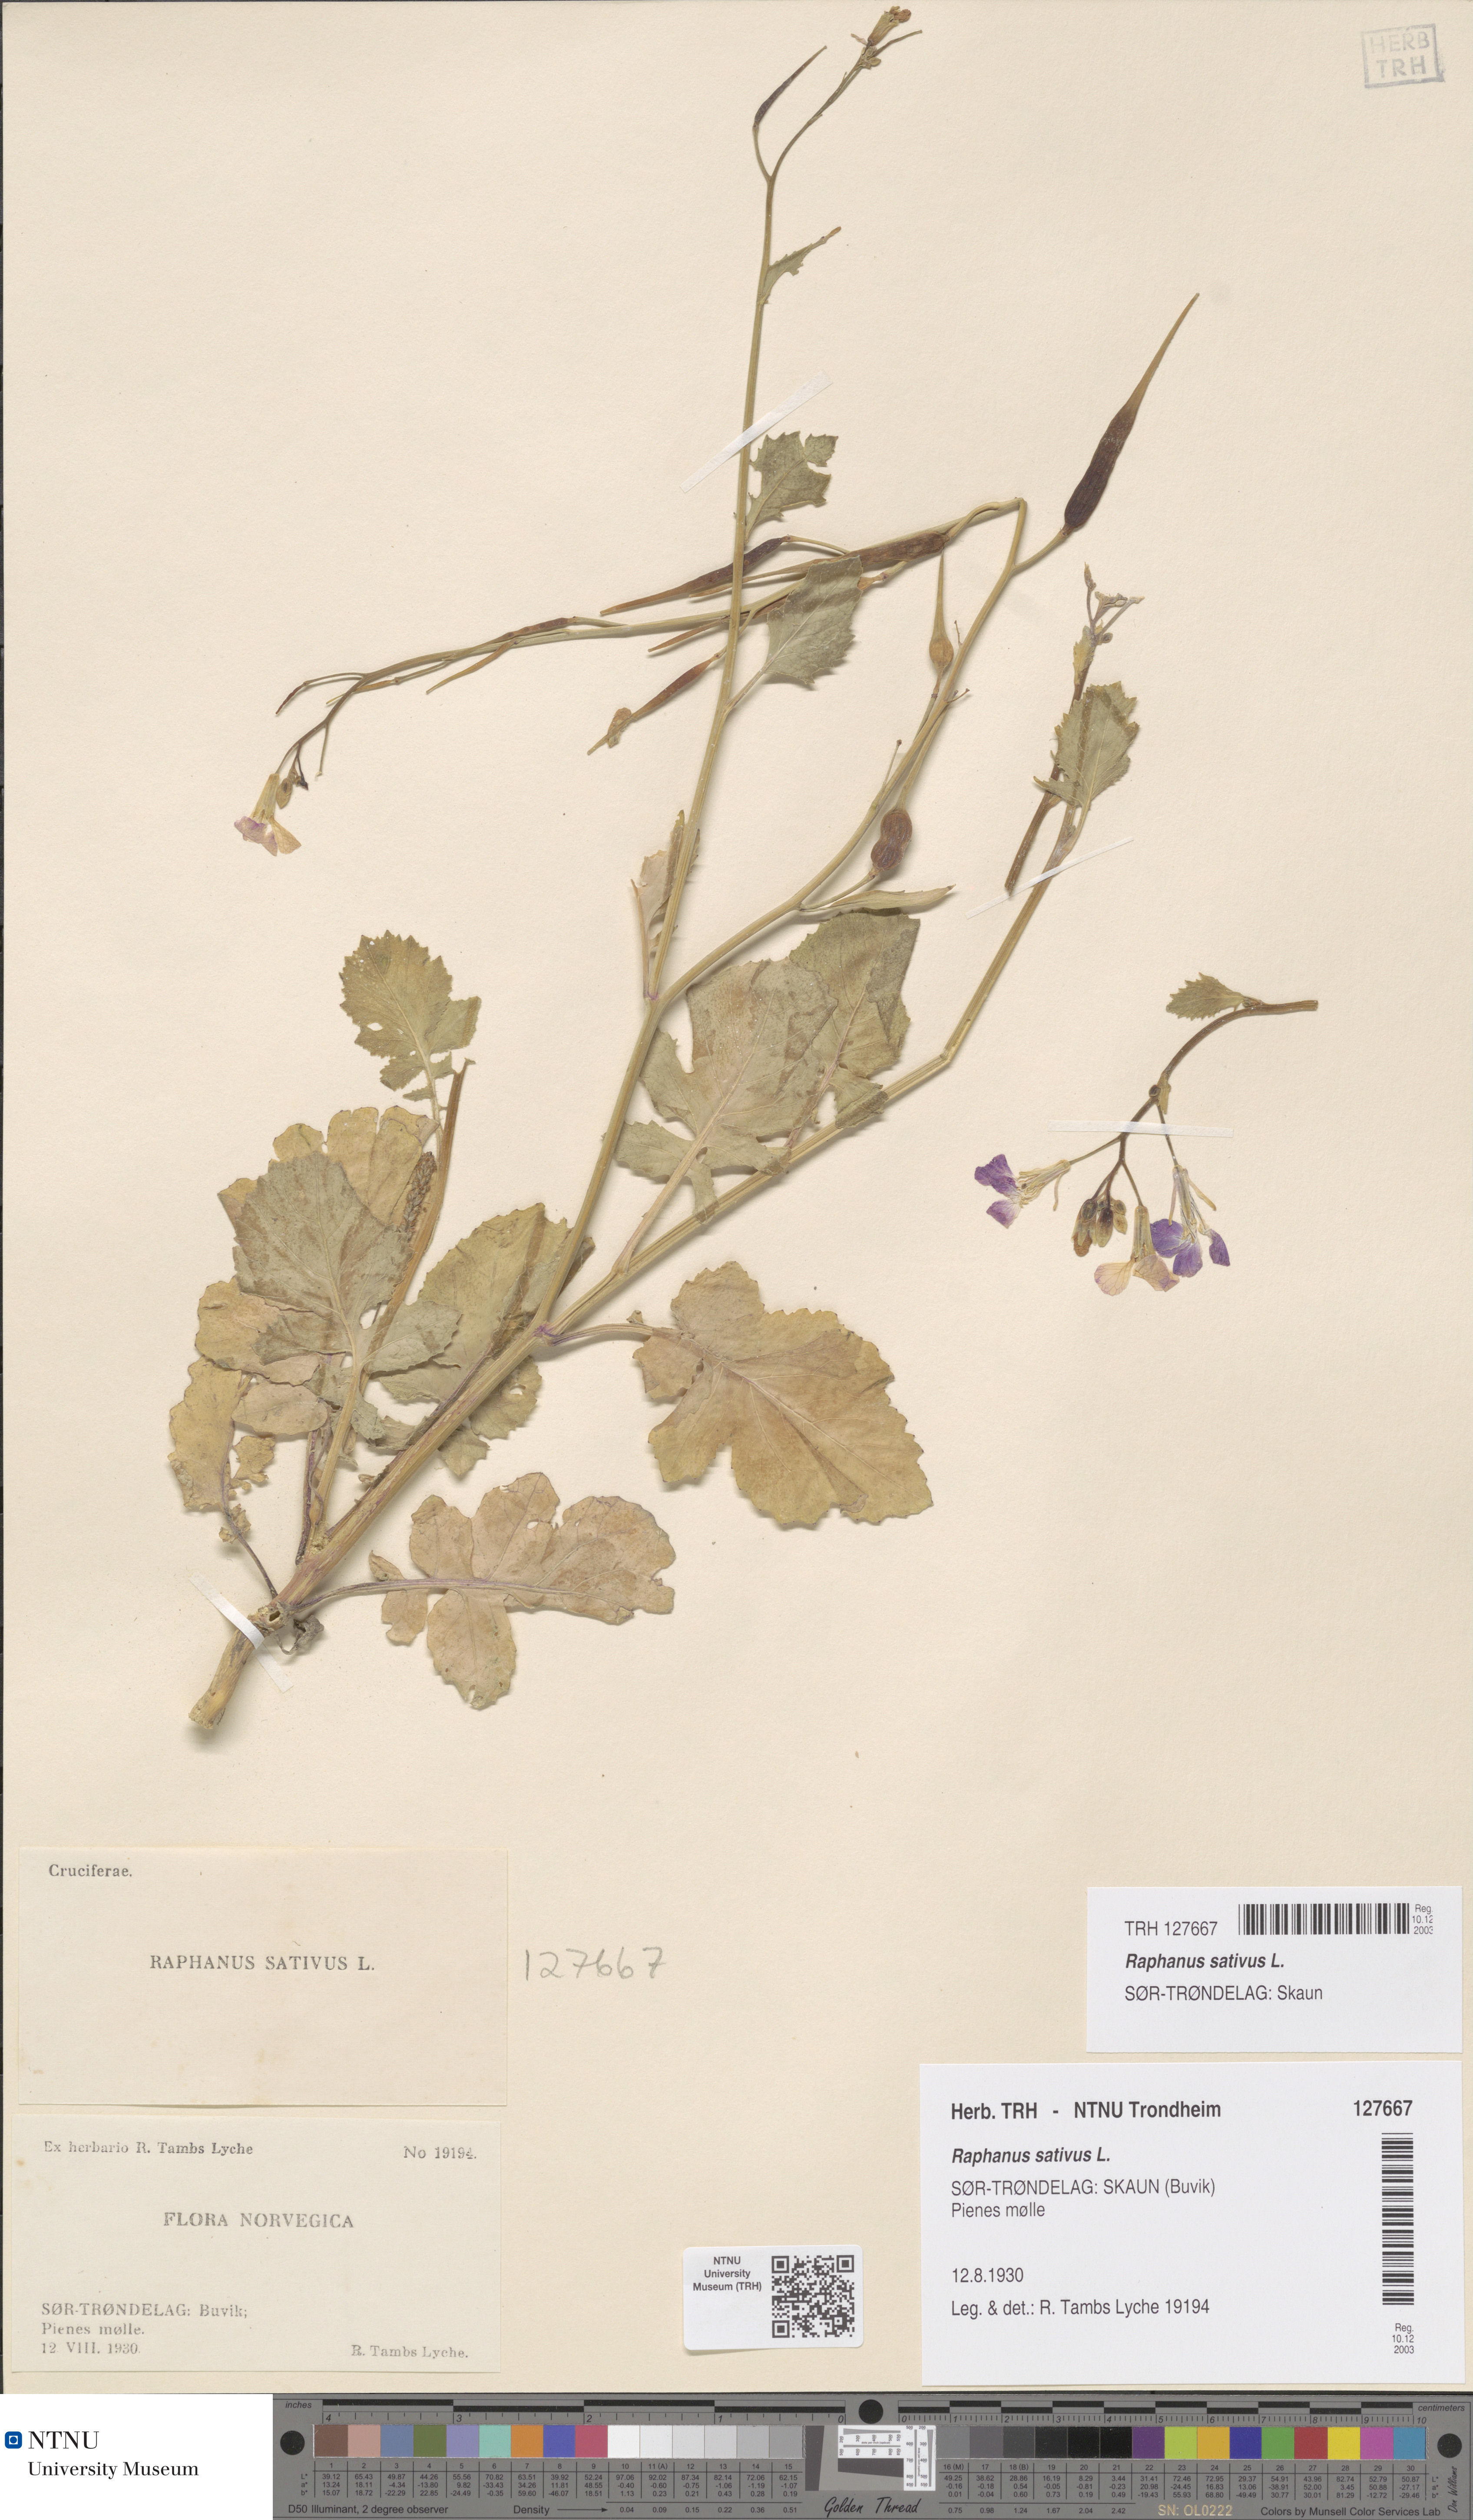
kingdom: Plantae
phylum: Tracheophyta
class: Magnoliopsida
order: Brassicales
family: Brassicaceae
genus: Raphanus
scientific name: Raphanus sativus
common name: Cultivated radish
